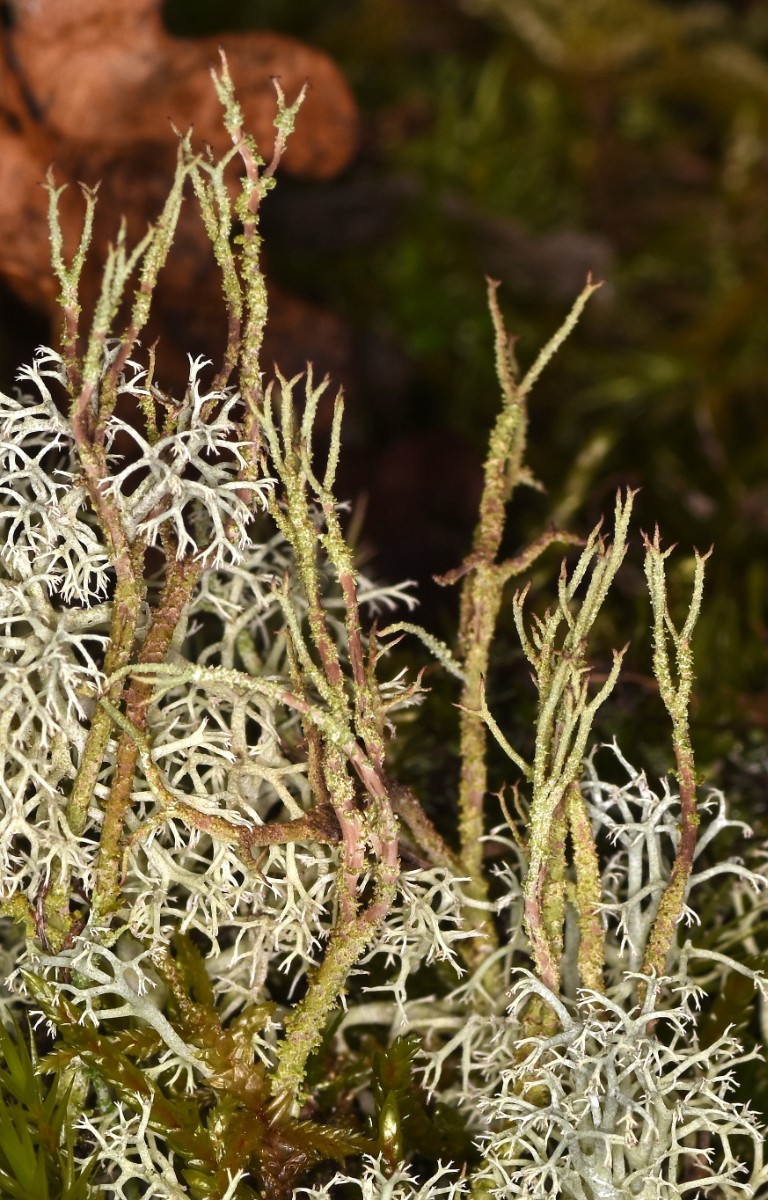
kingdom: Fungi
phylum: Ascomycota
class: Lecanoromycetes
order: Lecanorales
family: Cladoniaceae
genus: Cladonia
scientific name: Cladonia scabriuscula
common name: ru bægerlav
